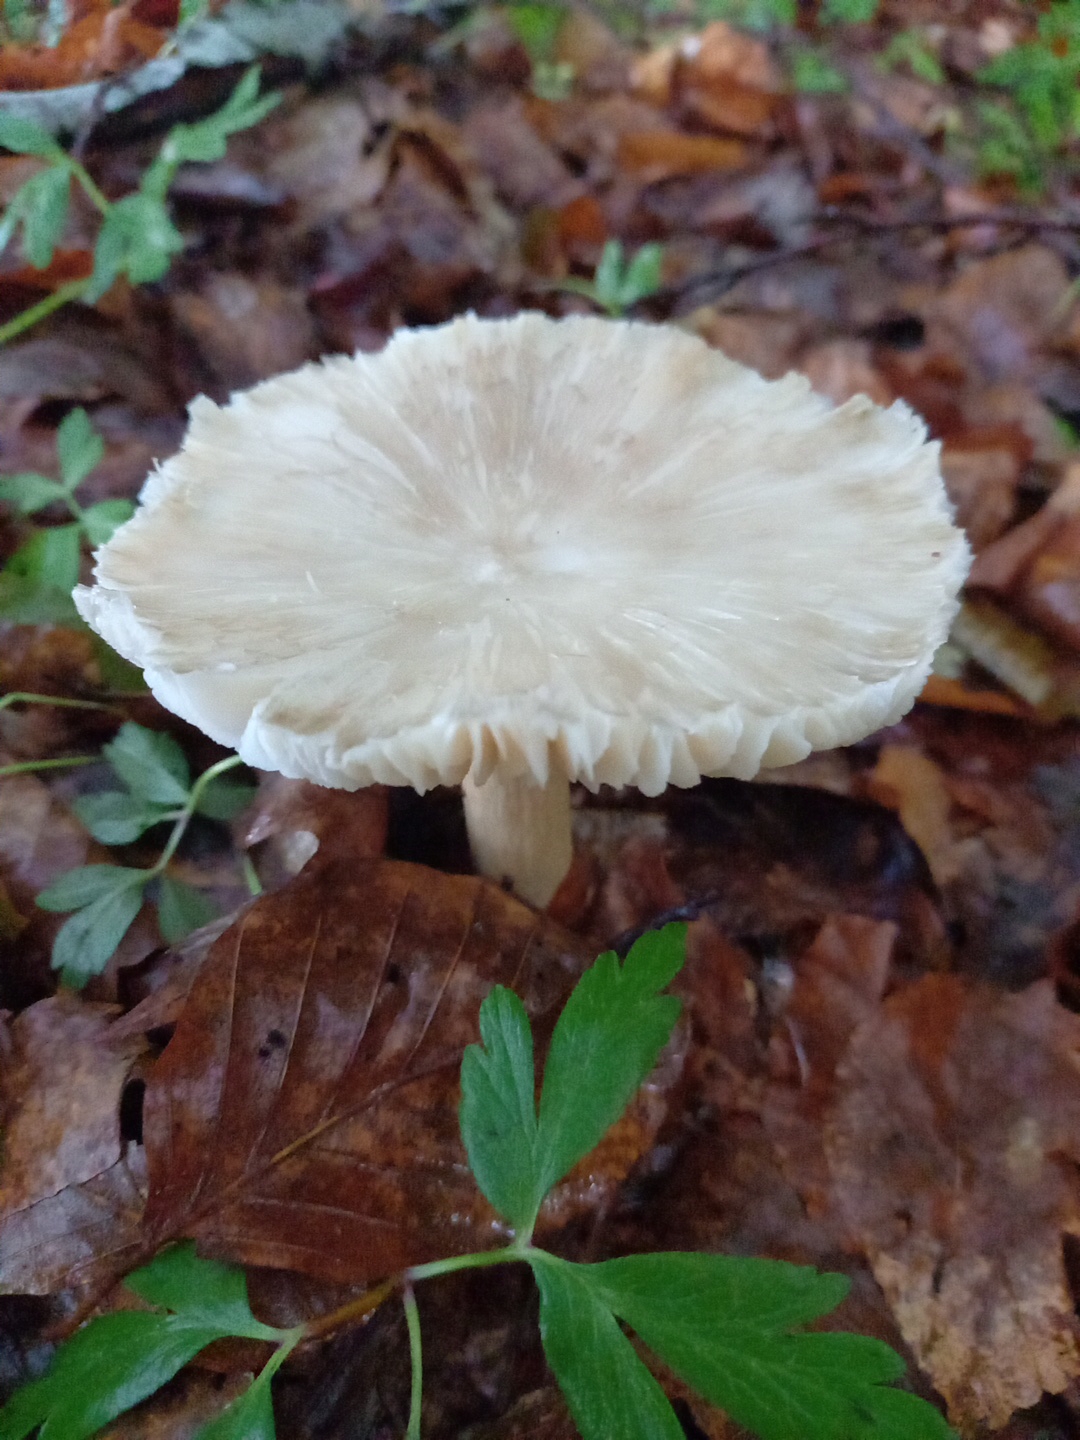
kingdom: Fungi
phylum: Basidiomycota
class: Agaricomycetes
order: Agaricales
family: Tricholomataceae
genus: Megacollybia
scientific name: Megacollybia platyphylla
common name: bredbladet væbnerhat
